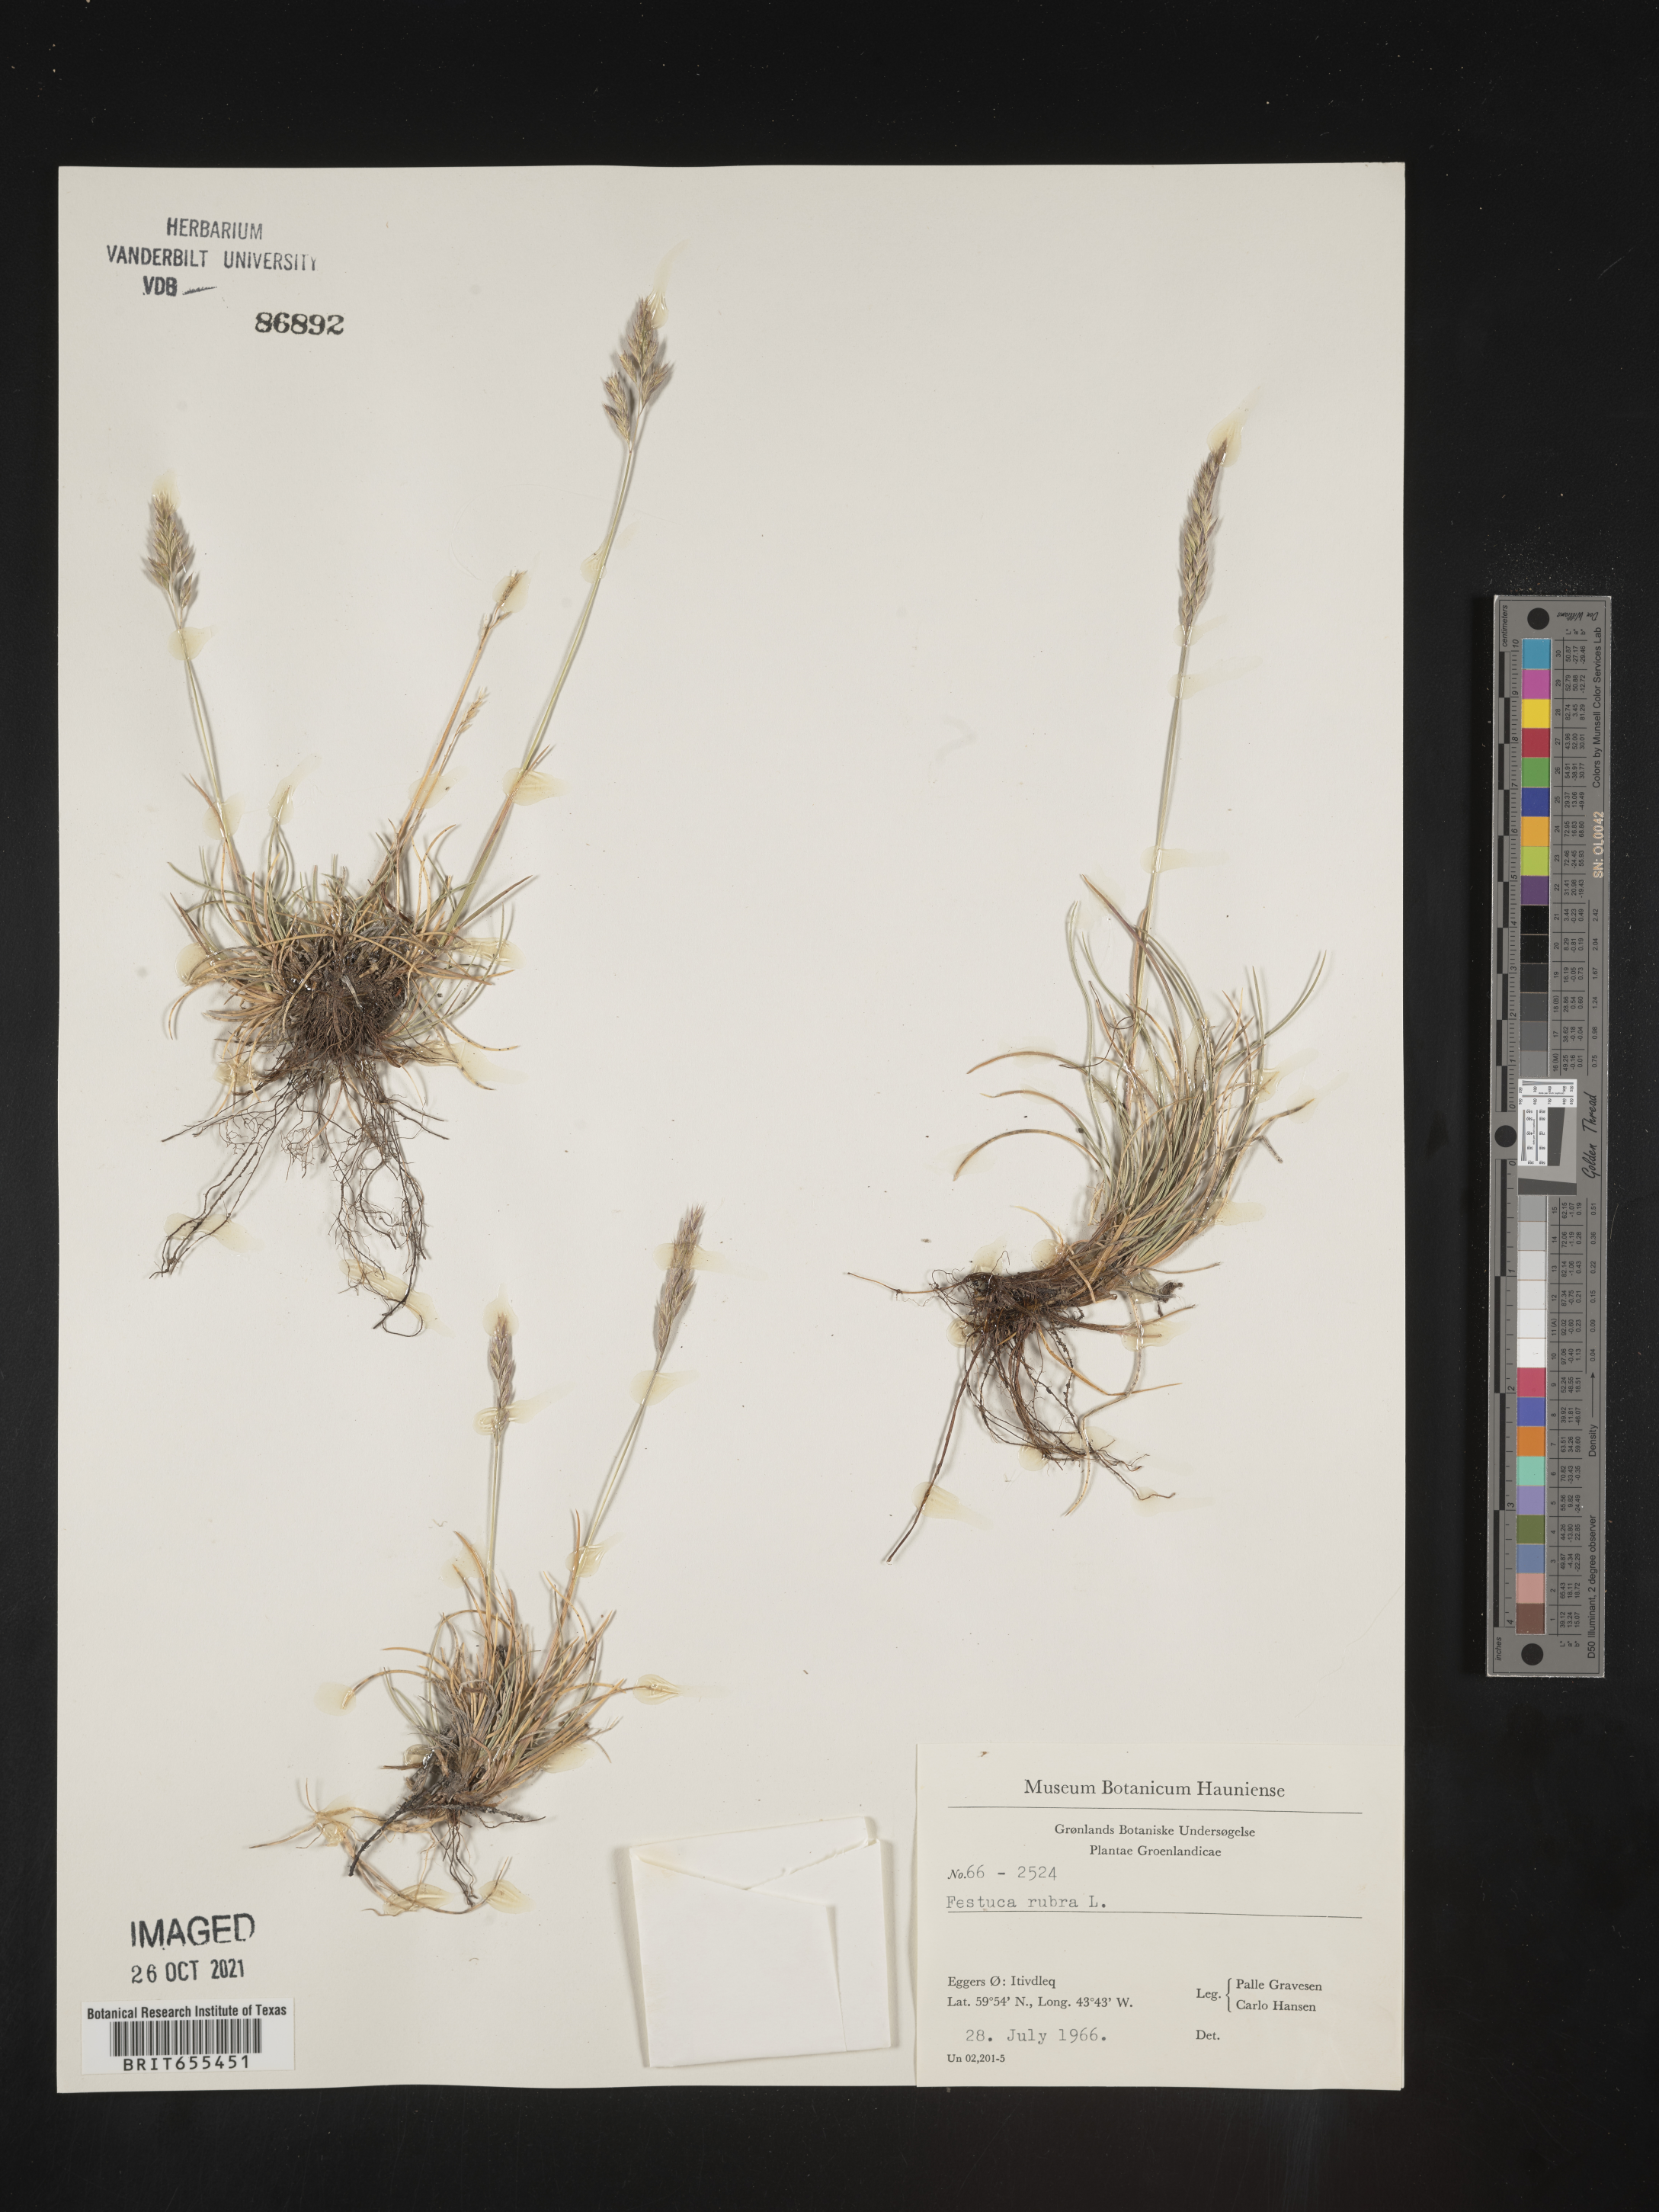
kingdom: Plantae
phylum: Tracheophyta
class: Liliopsida
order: Poales
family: Poaceae
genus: Festuca
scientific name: Festuca
